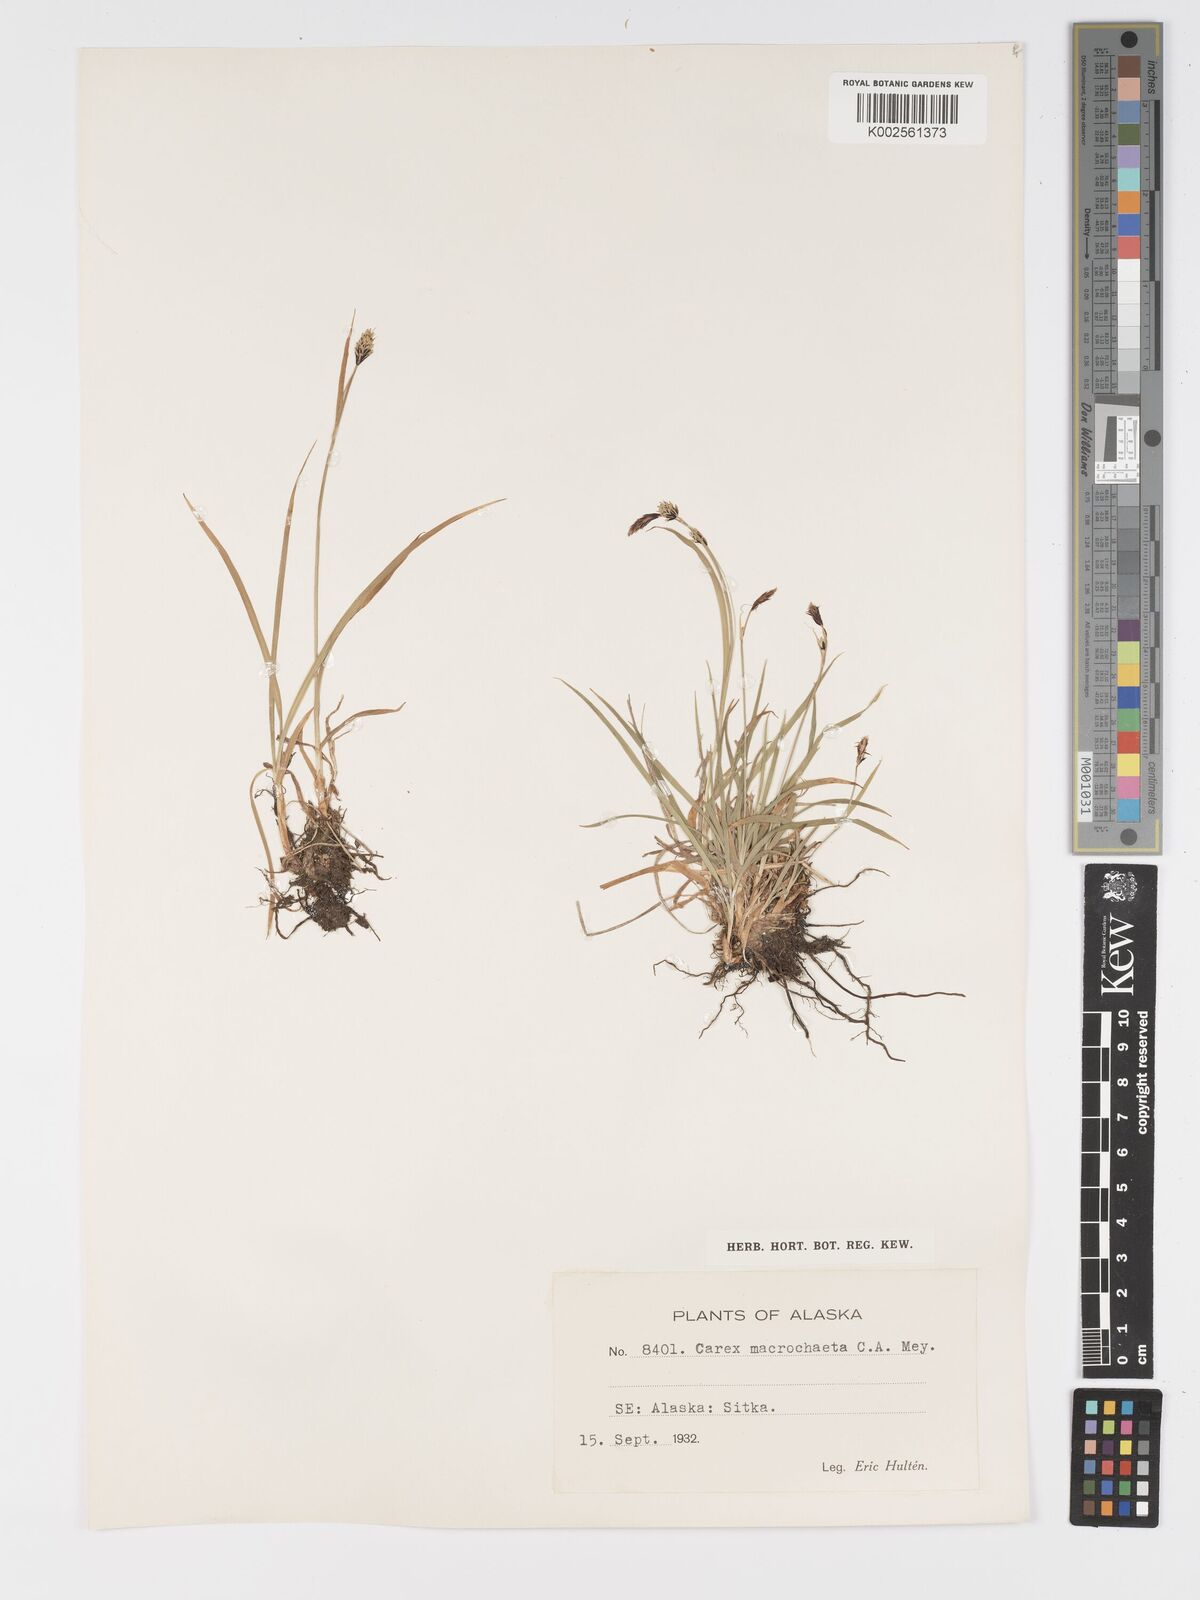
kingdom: Plantae
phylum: Tracheophyta
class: Liliopsida
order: Poales
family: Cyperaceae
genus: Carex
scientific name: Carex macrochaeta
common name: Alaska large awn sedge
